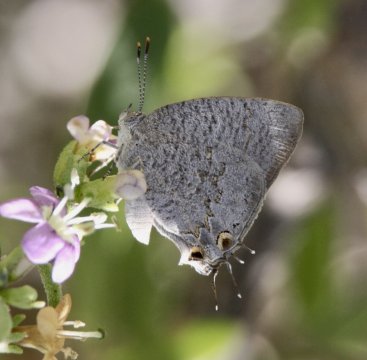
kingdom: Animalia
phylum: Arthropoda
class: Insecta
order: Lepidoptera
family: Lycaenidae
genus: Hypostrymon
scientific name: Hypostrymon critola
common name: Sonoran Hairstreak
